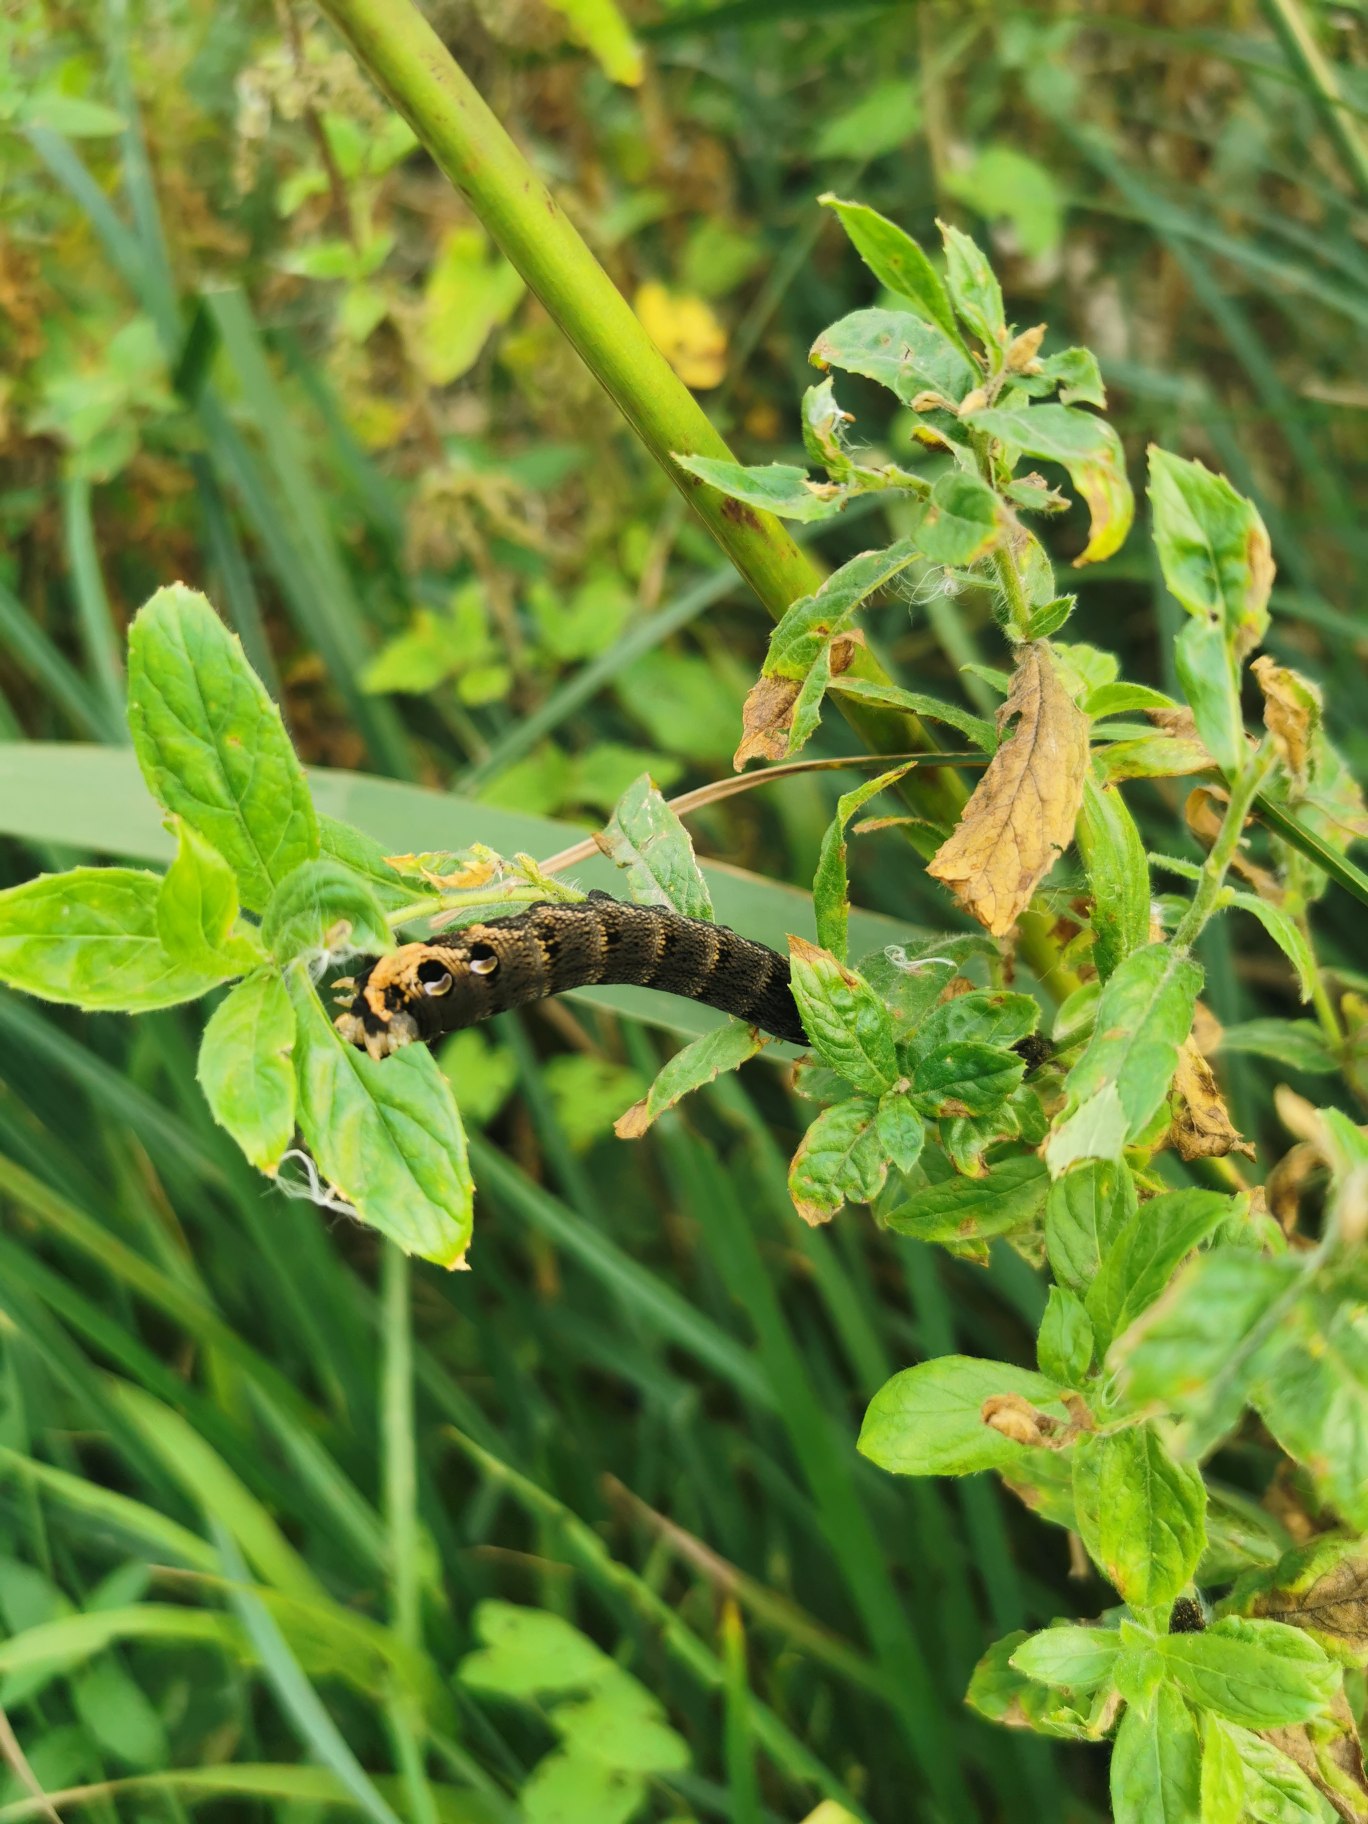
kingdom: Animalia
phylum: Arthropoda
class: Insecta
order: Lepidoptera
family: Sphingidae
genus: Deilephila
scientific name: Deilephila elpenor
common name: Dueurtsværmer
